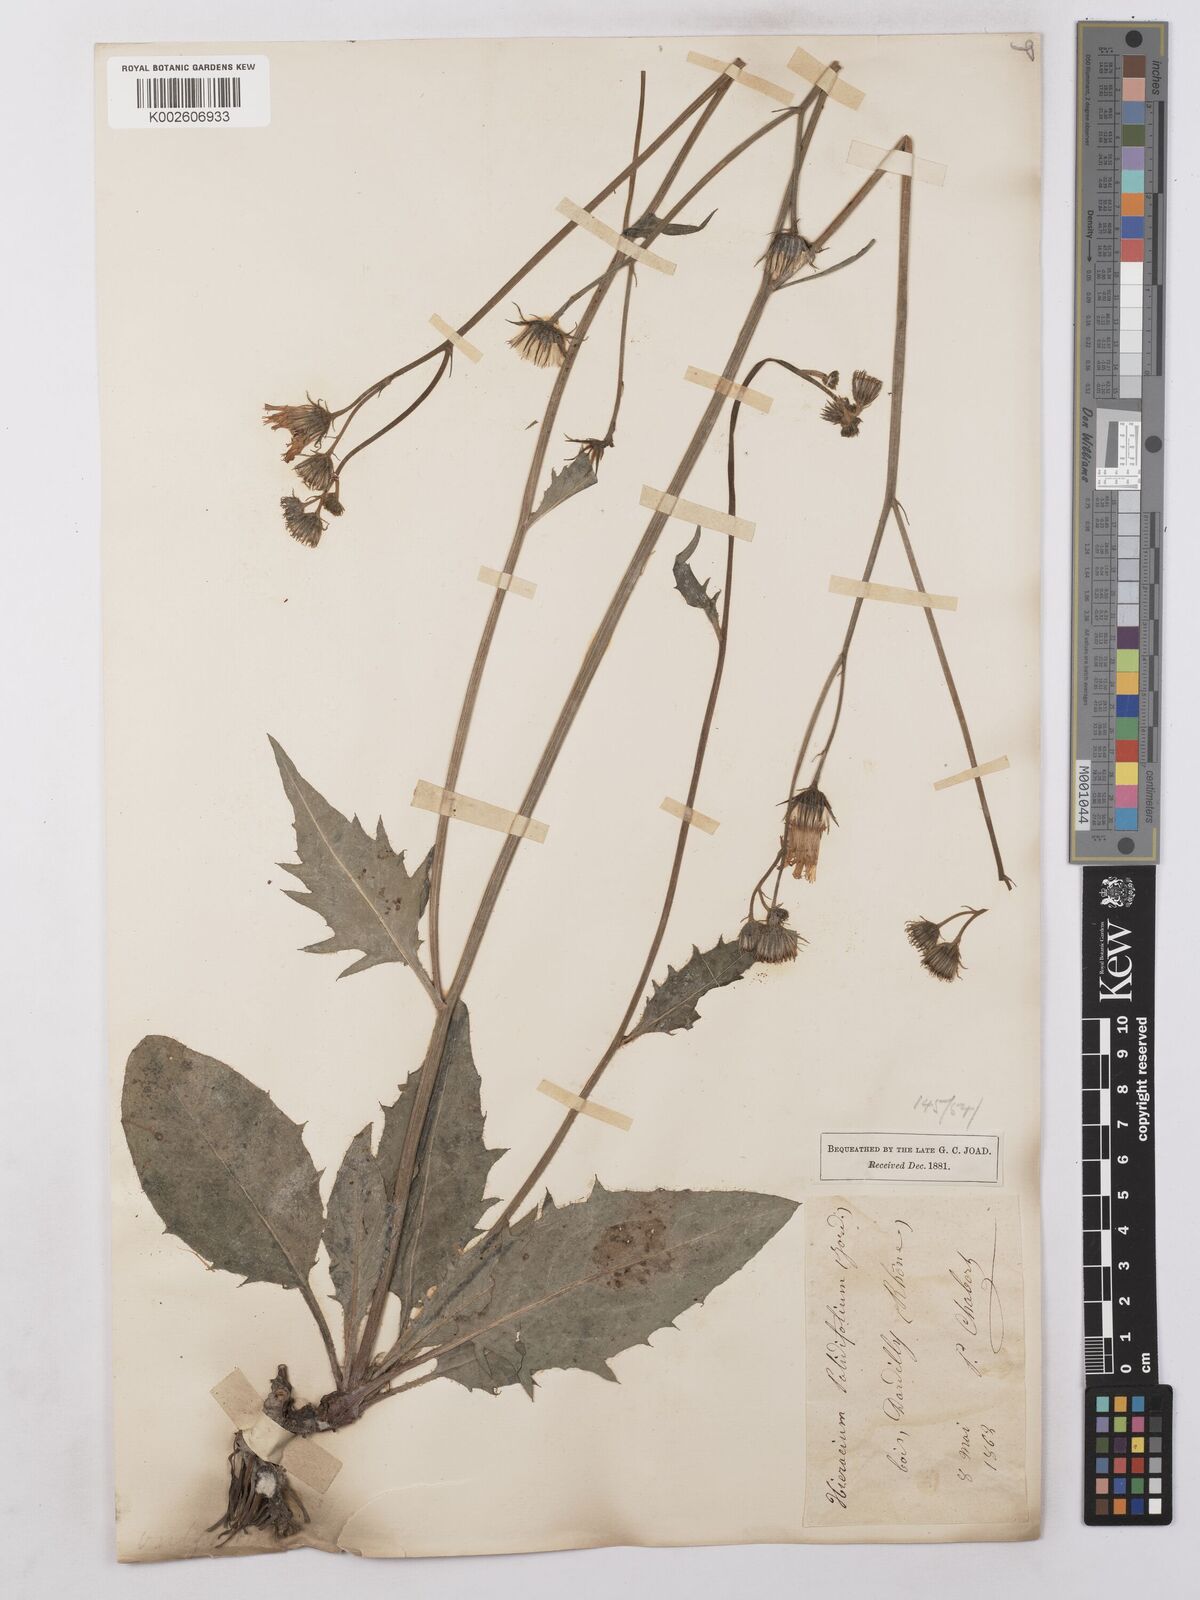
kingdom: Plantae
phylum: Tracheophyta
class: Magnoliopsida
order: Asterales
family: Asteraceae
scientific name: Asteraceae
